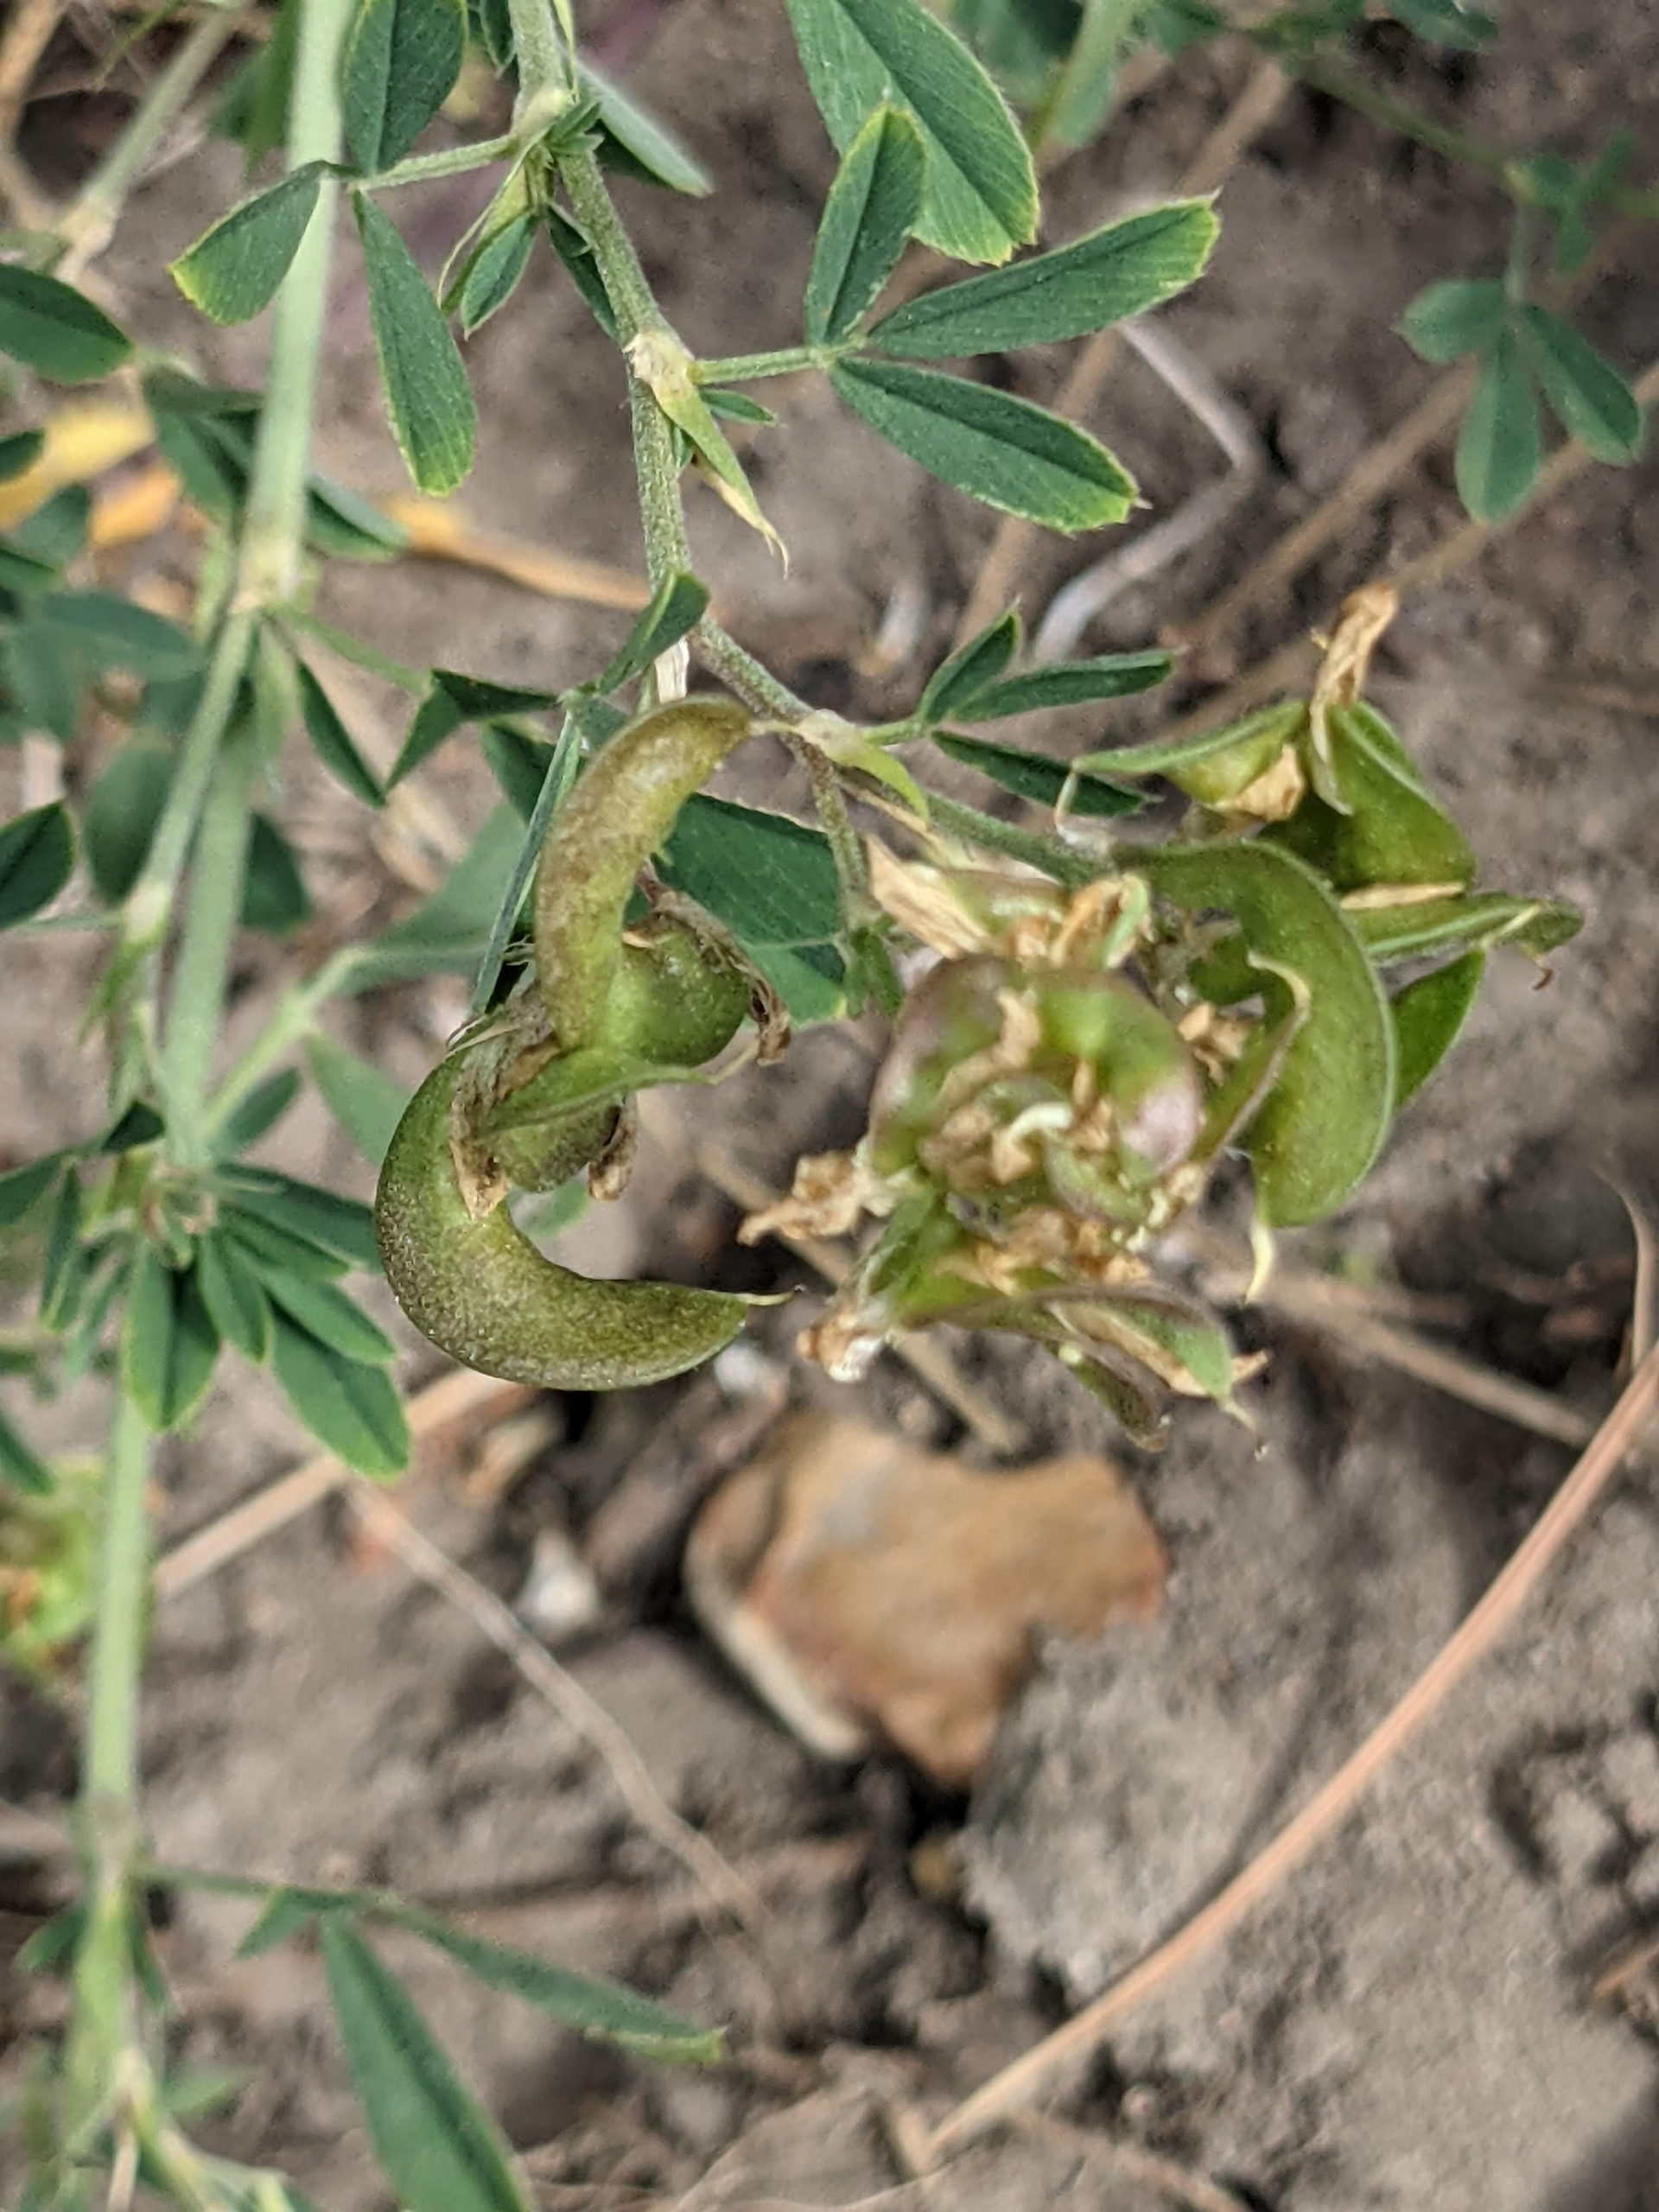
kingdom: Plantae
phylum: Tracheophyta
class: Magnoliopsida
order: Fabales
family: Fabaceae
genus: Medicago
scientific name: Medicago falcata
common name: Segl-sneglebælg
